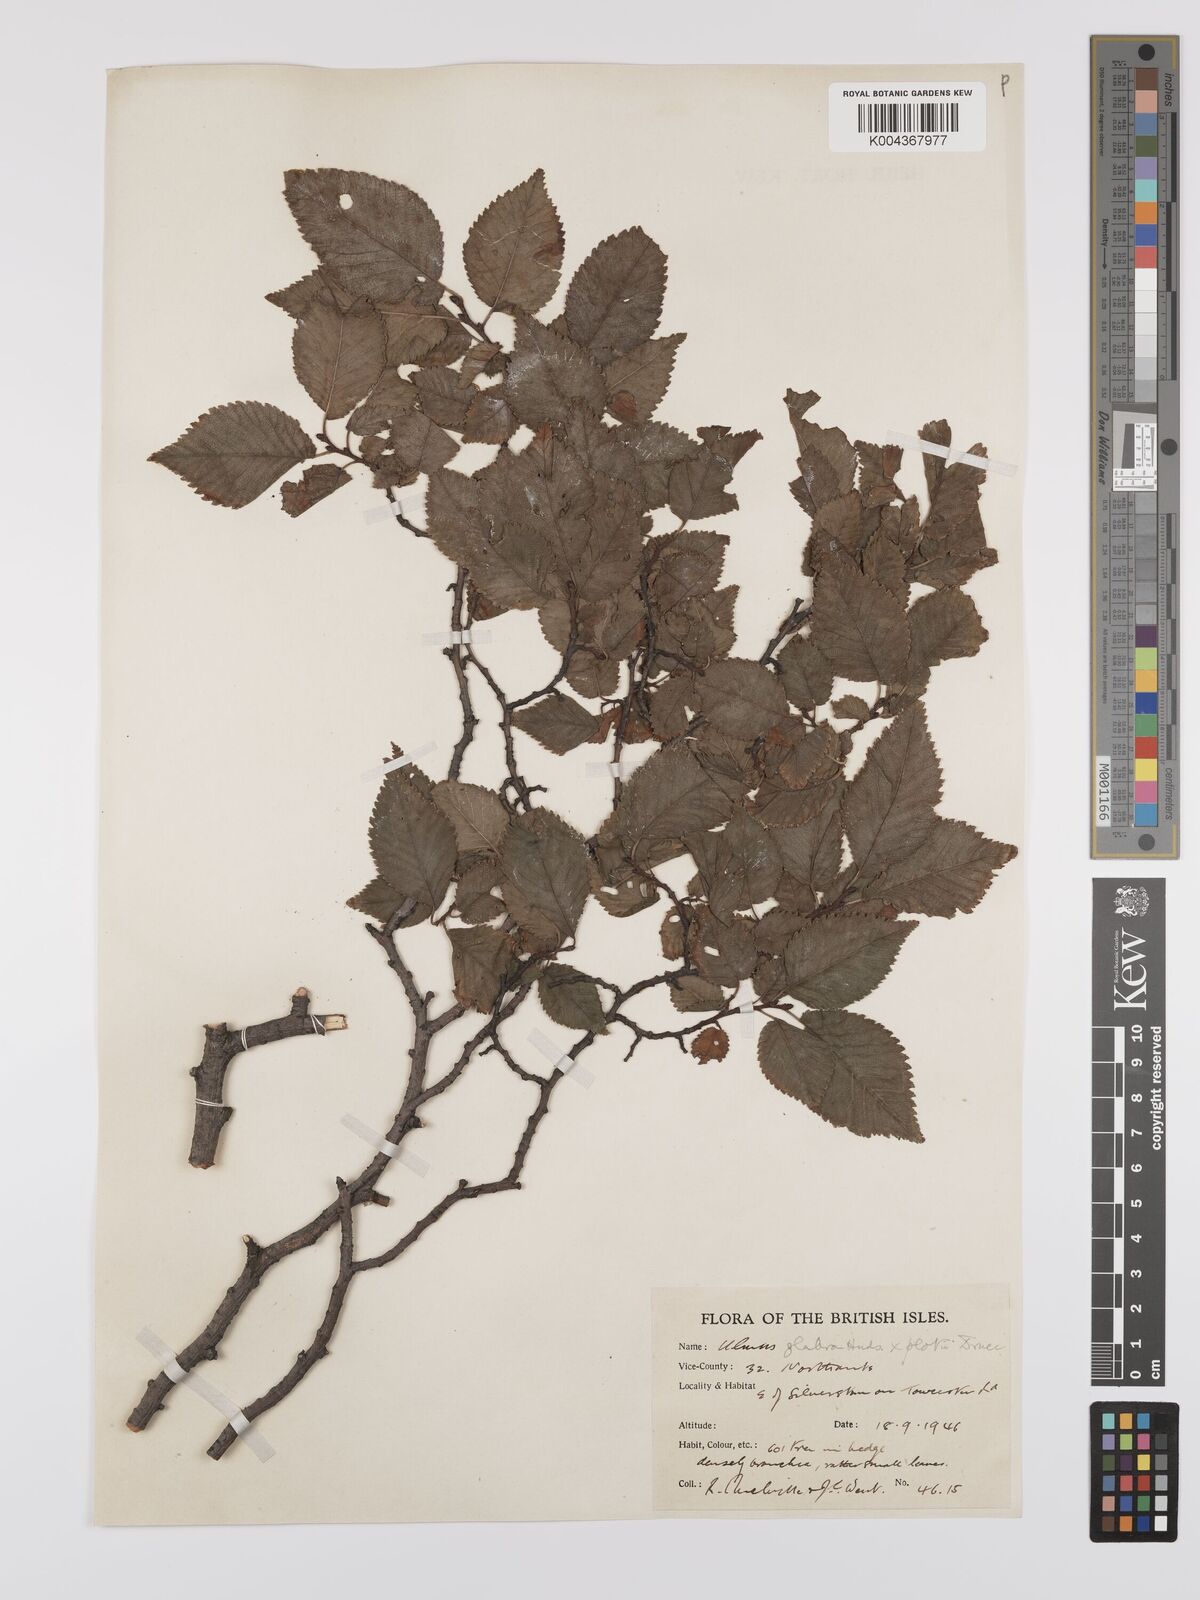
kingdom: Plantae
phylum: Tracheophyta
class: Magnoliopsida
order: Rosales
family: Ulmaceae
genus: Ulmus
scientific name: Ulmus
